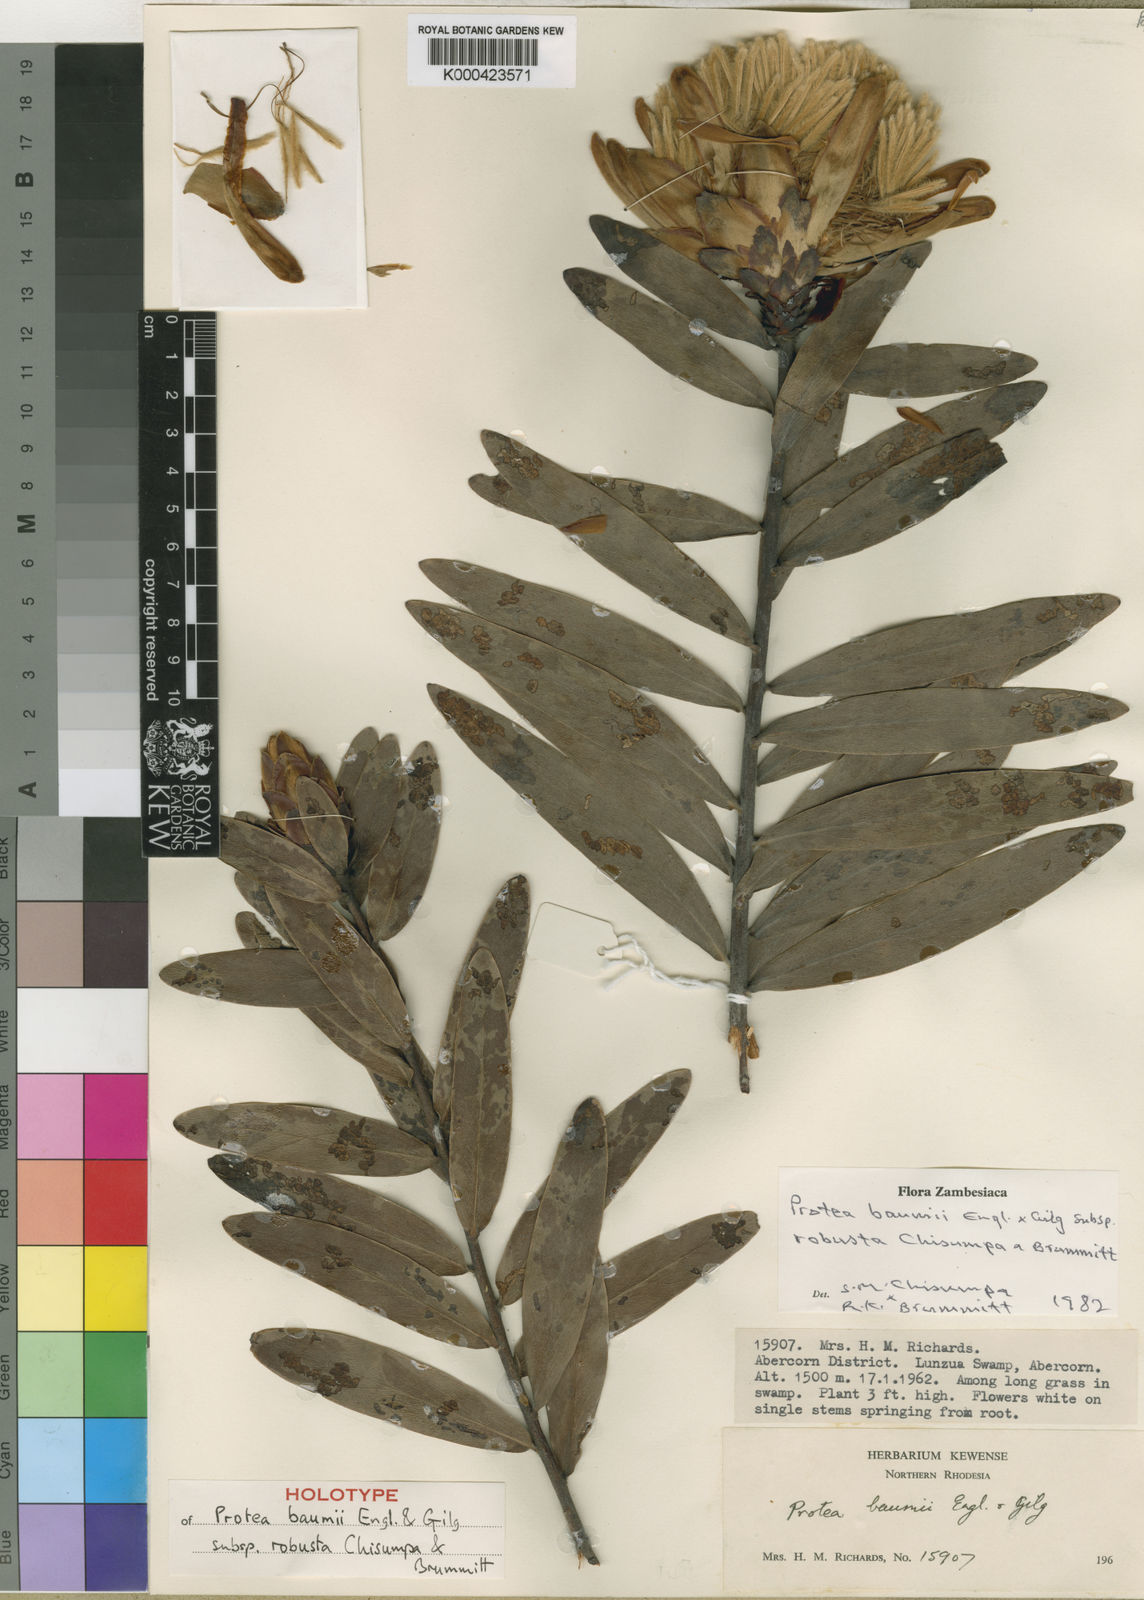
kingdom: Plantae
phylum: Tracheophyta
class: Magnoliopsida
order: Proteales
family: Proteaceae
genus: Protea
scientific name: Protea baumii
